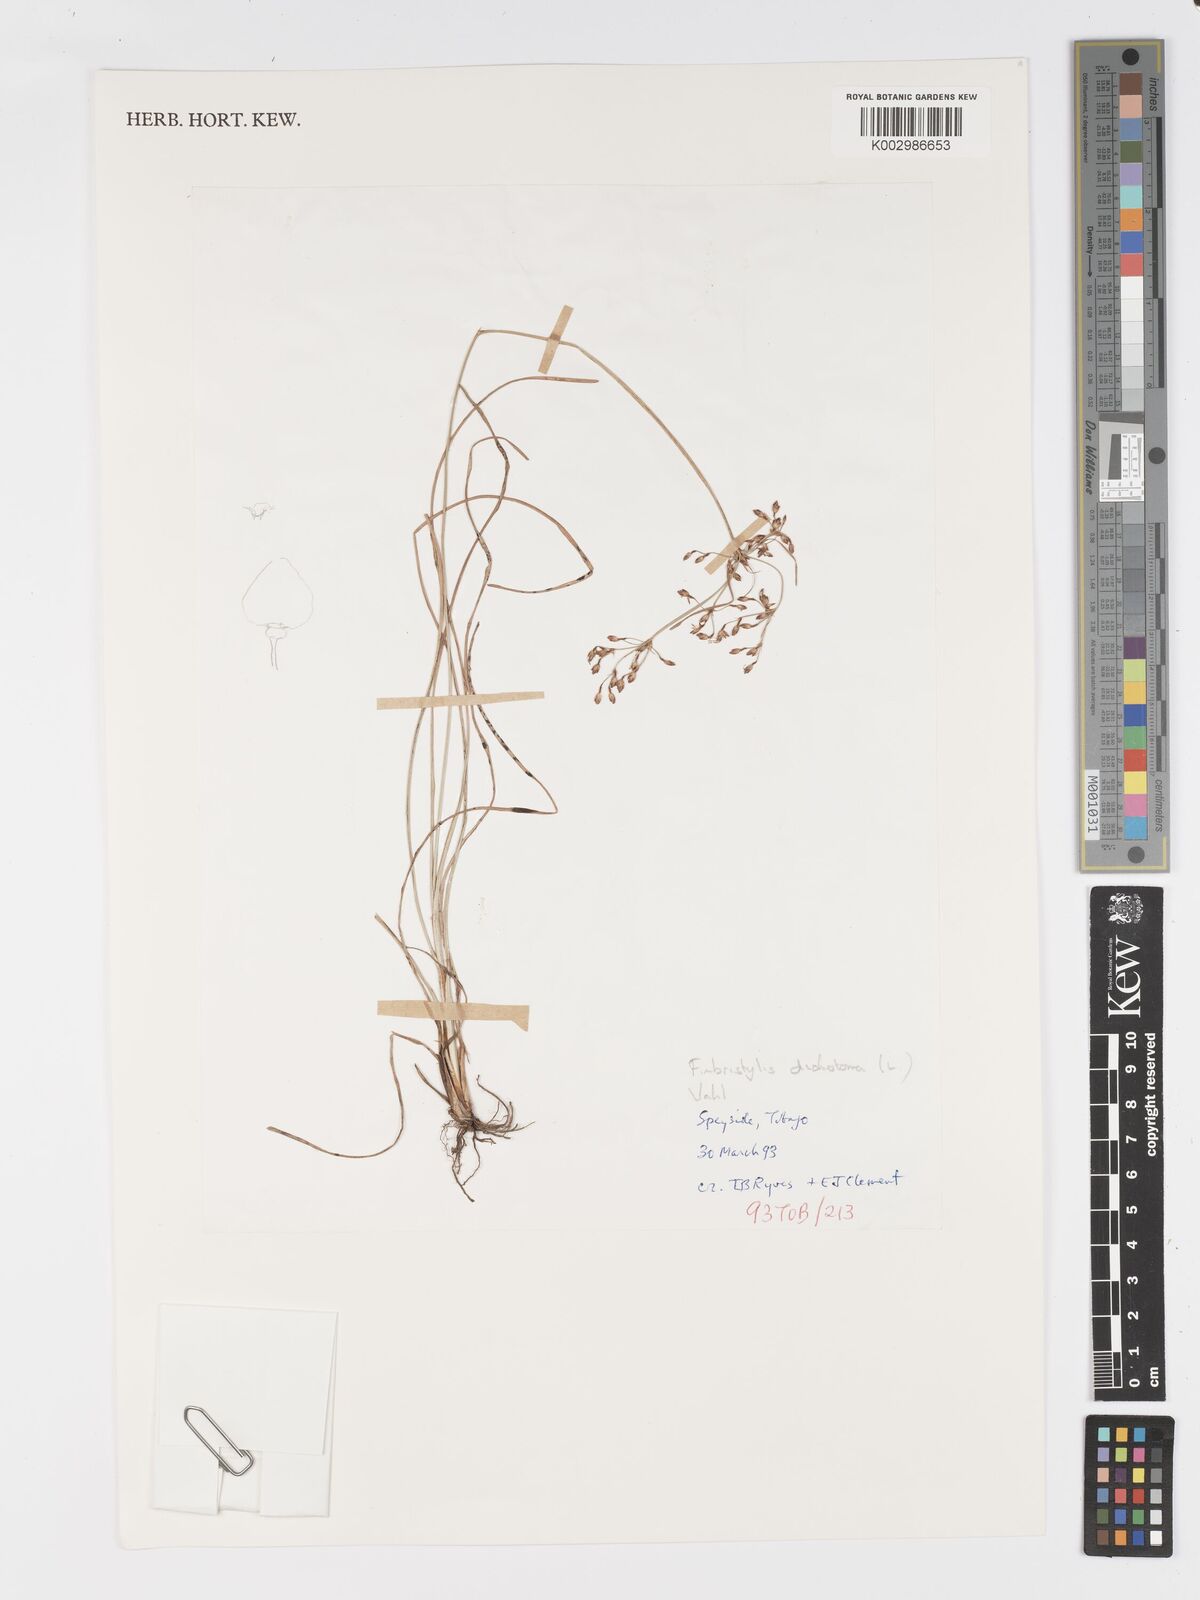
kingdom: Plantae
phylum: Tracheophyta
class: Liliopsida
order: Poales
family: Cyperaceae
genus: Fimbristylis
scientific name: Fimbristylis cymosa
